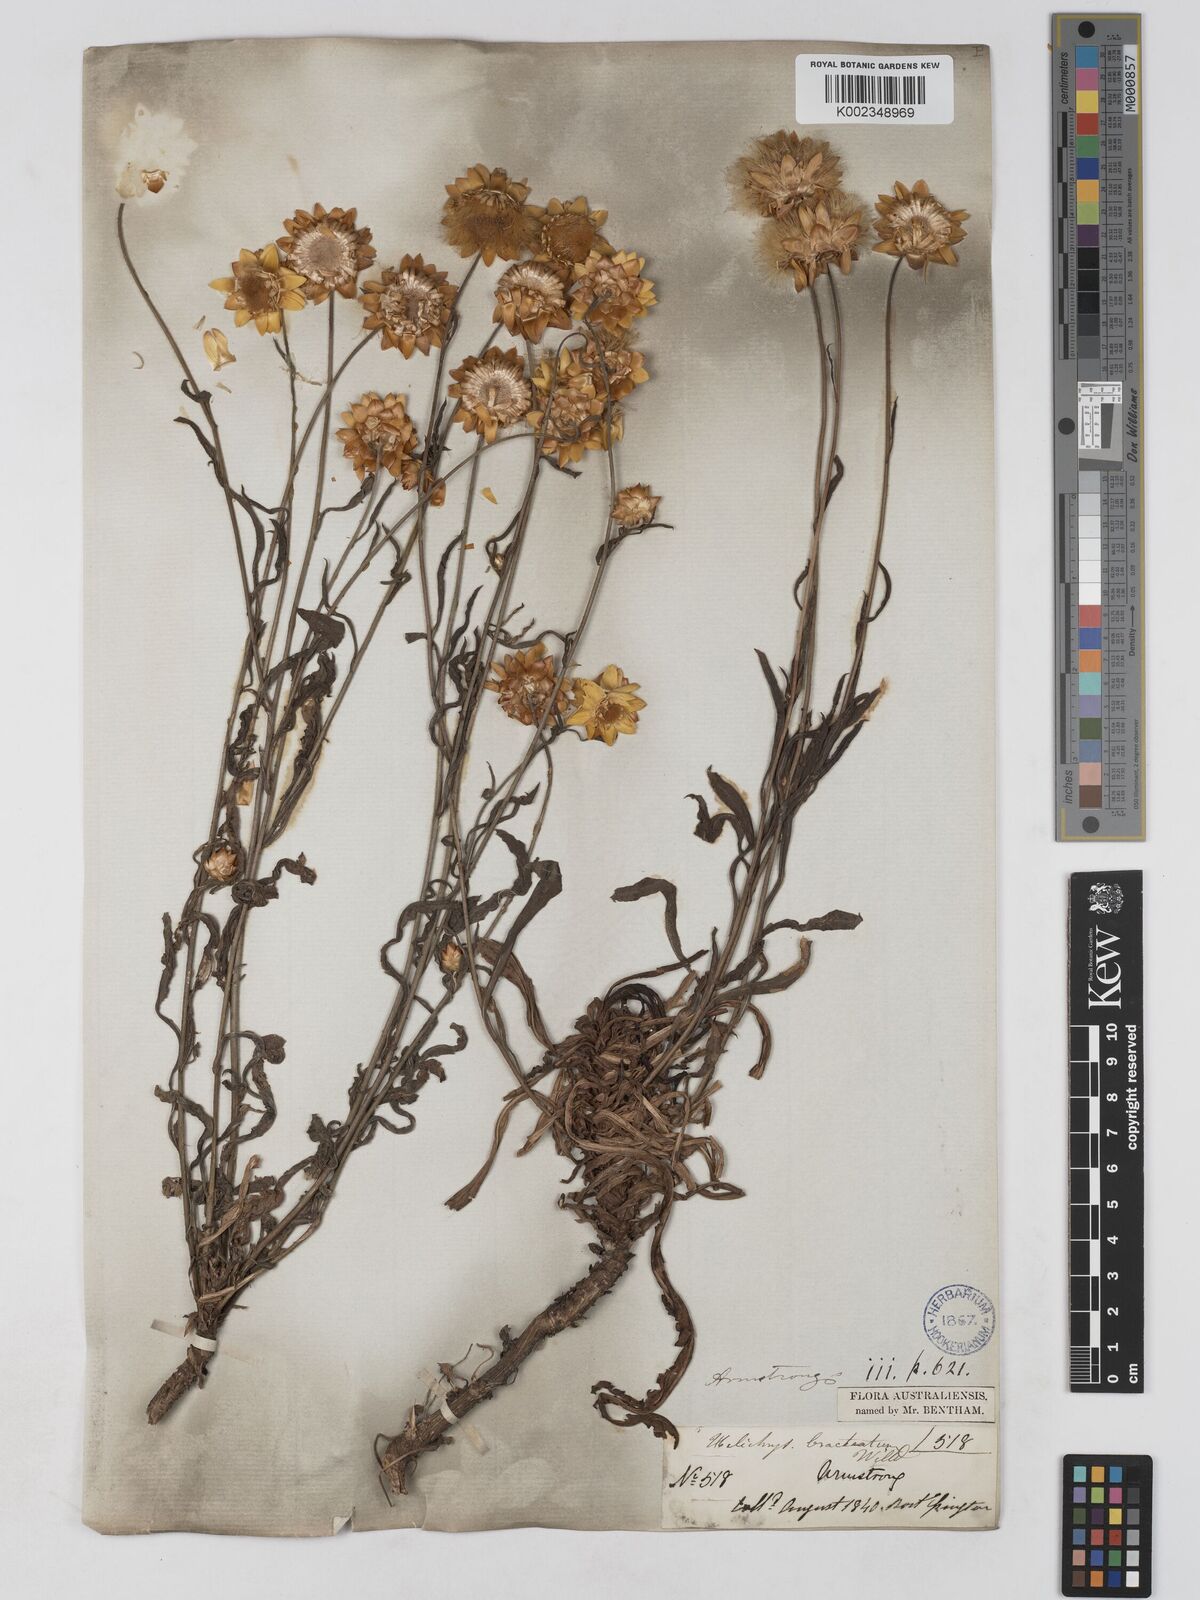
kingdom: Plantae
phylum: Tracheophyta
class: Magnoliopsida
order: Asterales
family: Asteraceae
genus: Xerochrysum
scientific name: Xerochrysum bracteatum
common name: Bracted strawflower
